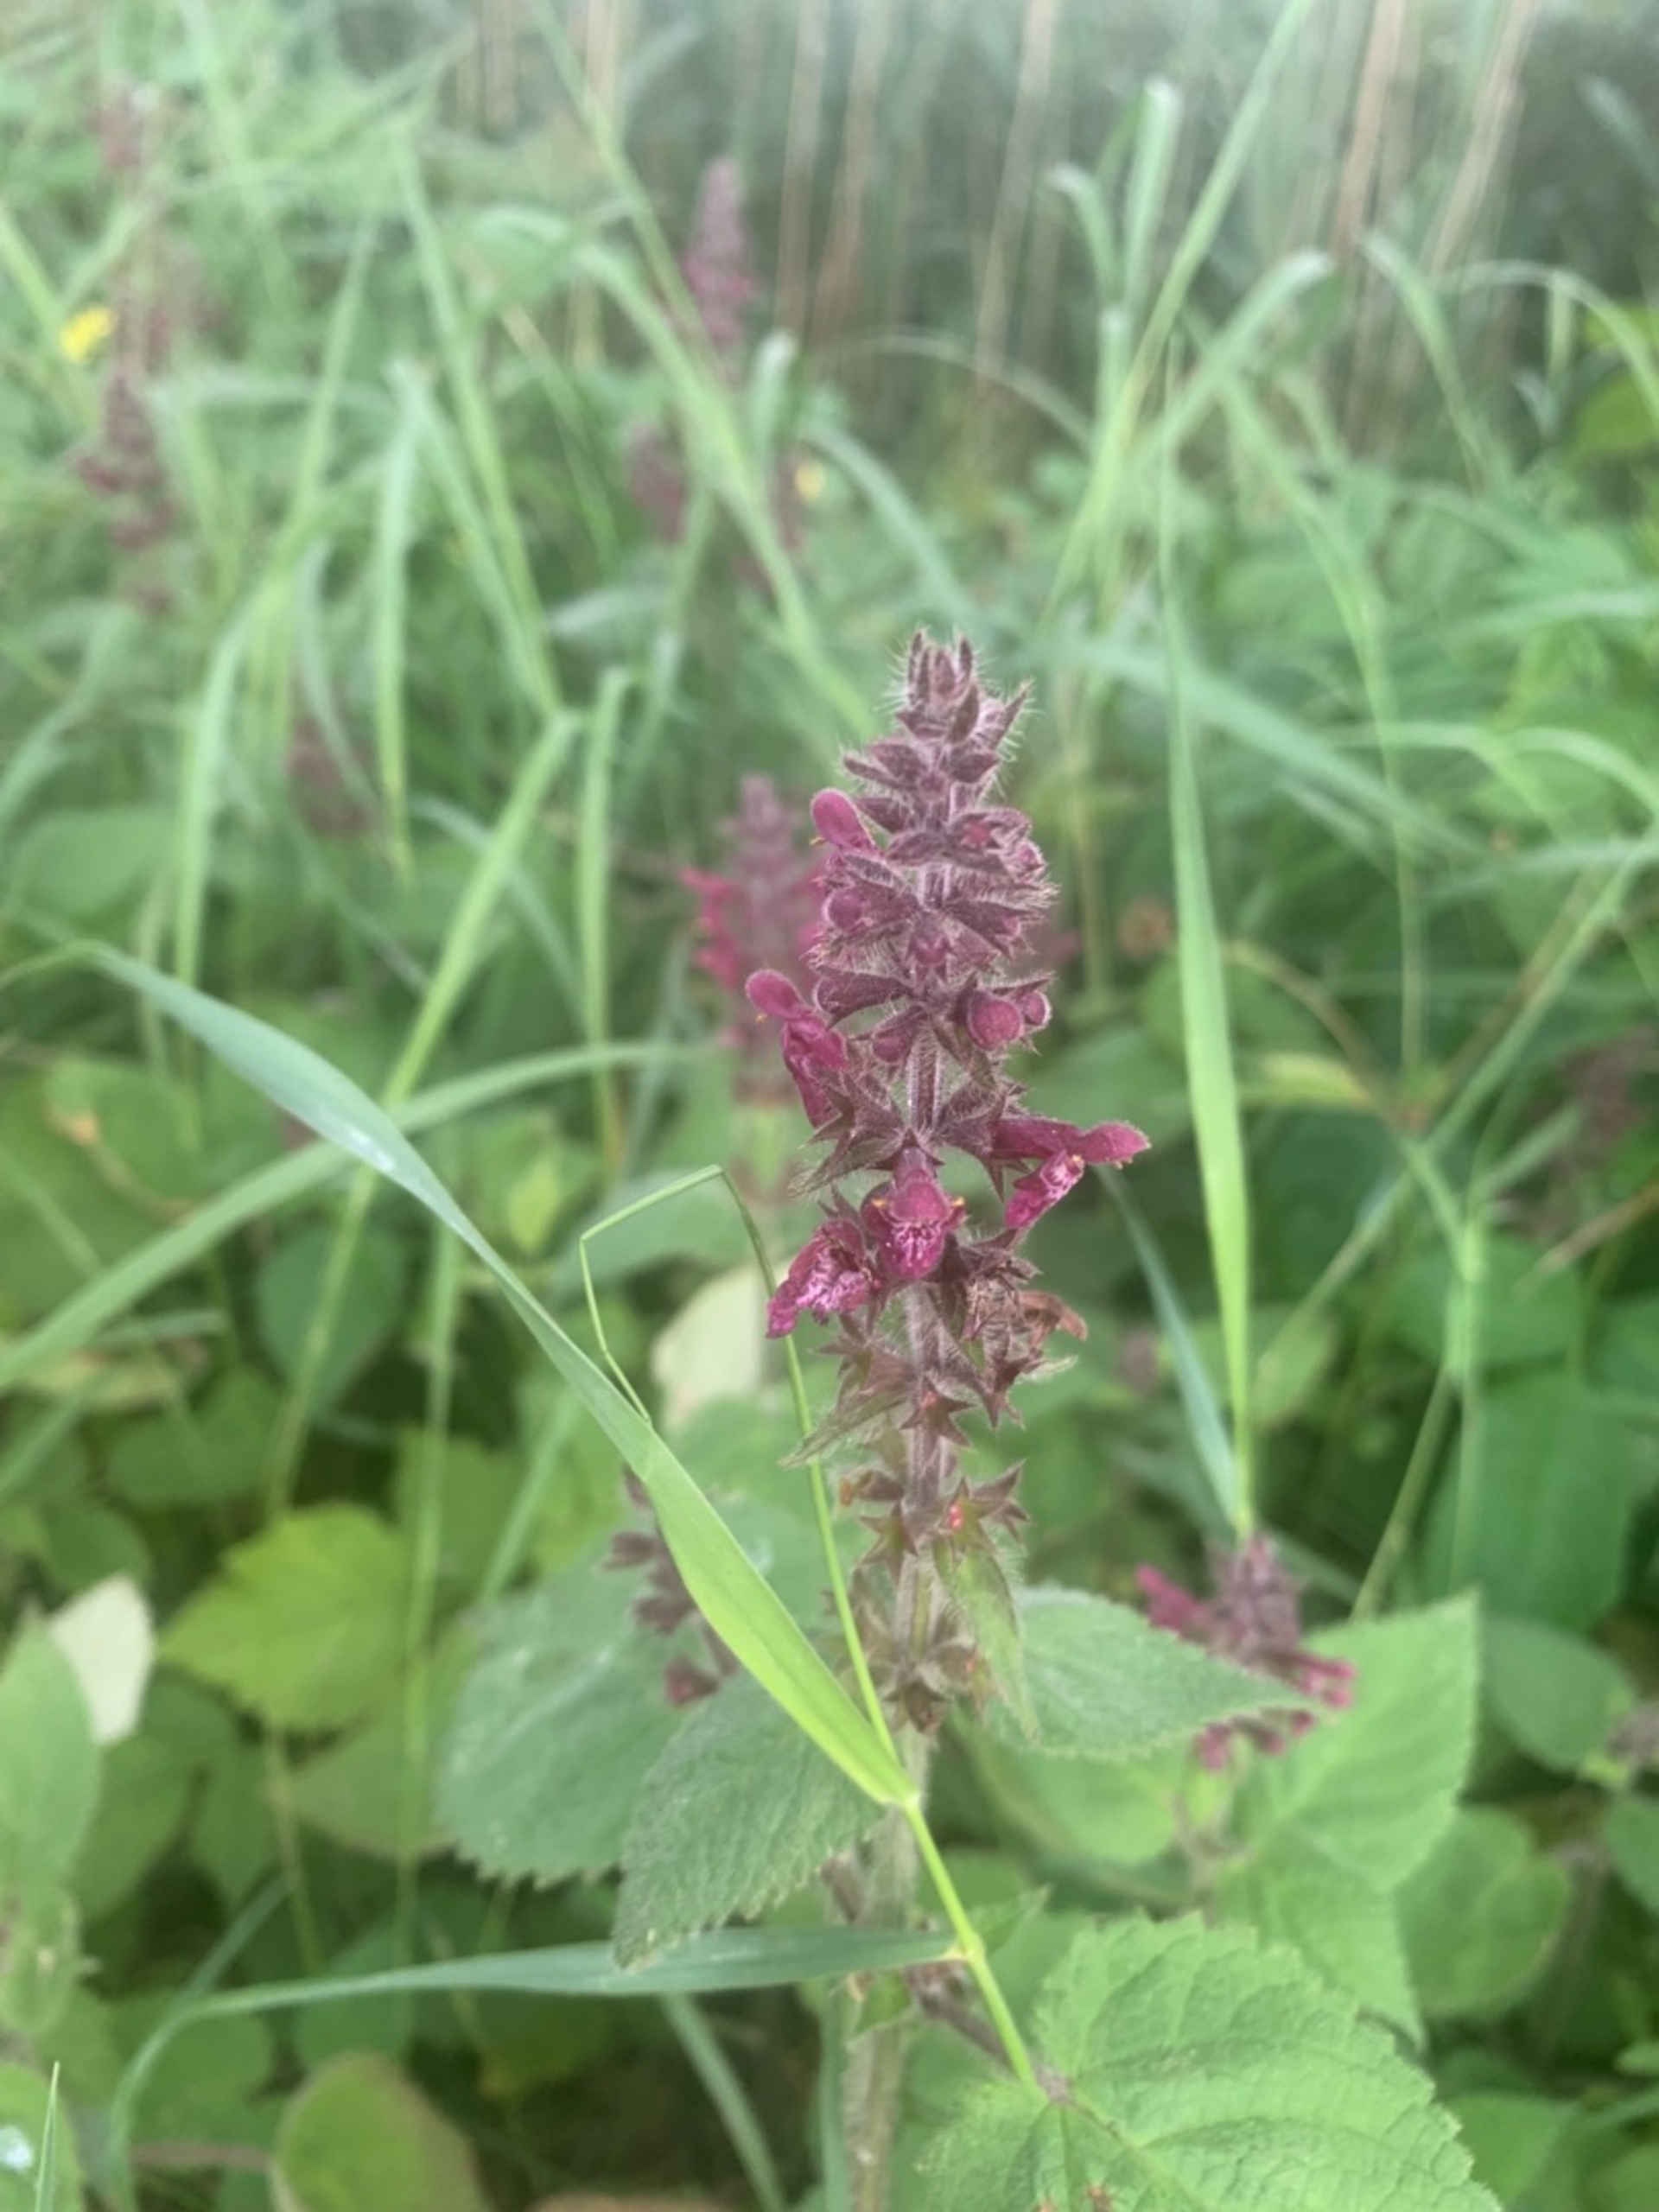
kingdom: Plantae
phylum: Tracheophyta
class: Magnoliopsida
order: Lamiales
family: Lamiaceae
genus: Stachys
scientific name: Stachys sylvatica
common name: Skov-galtetand
